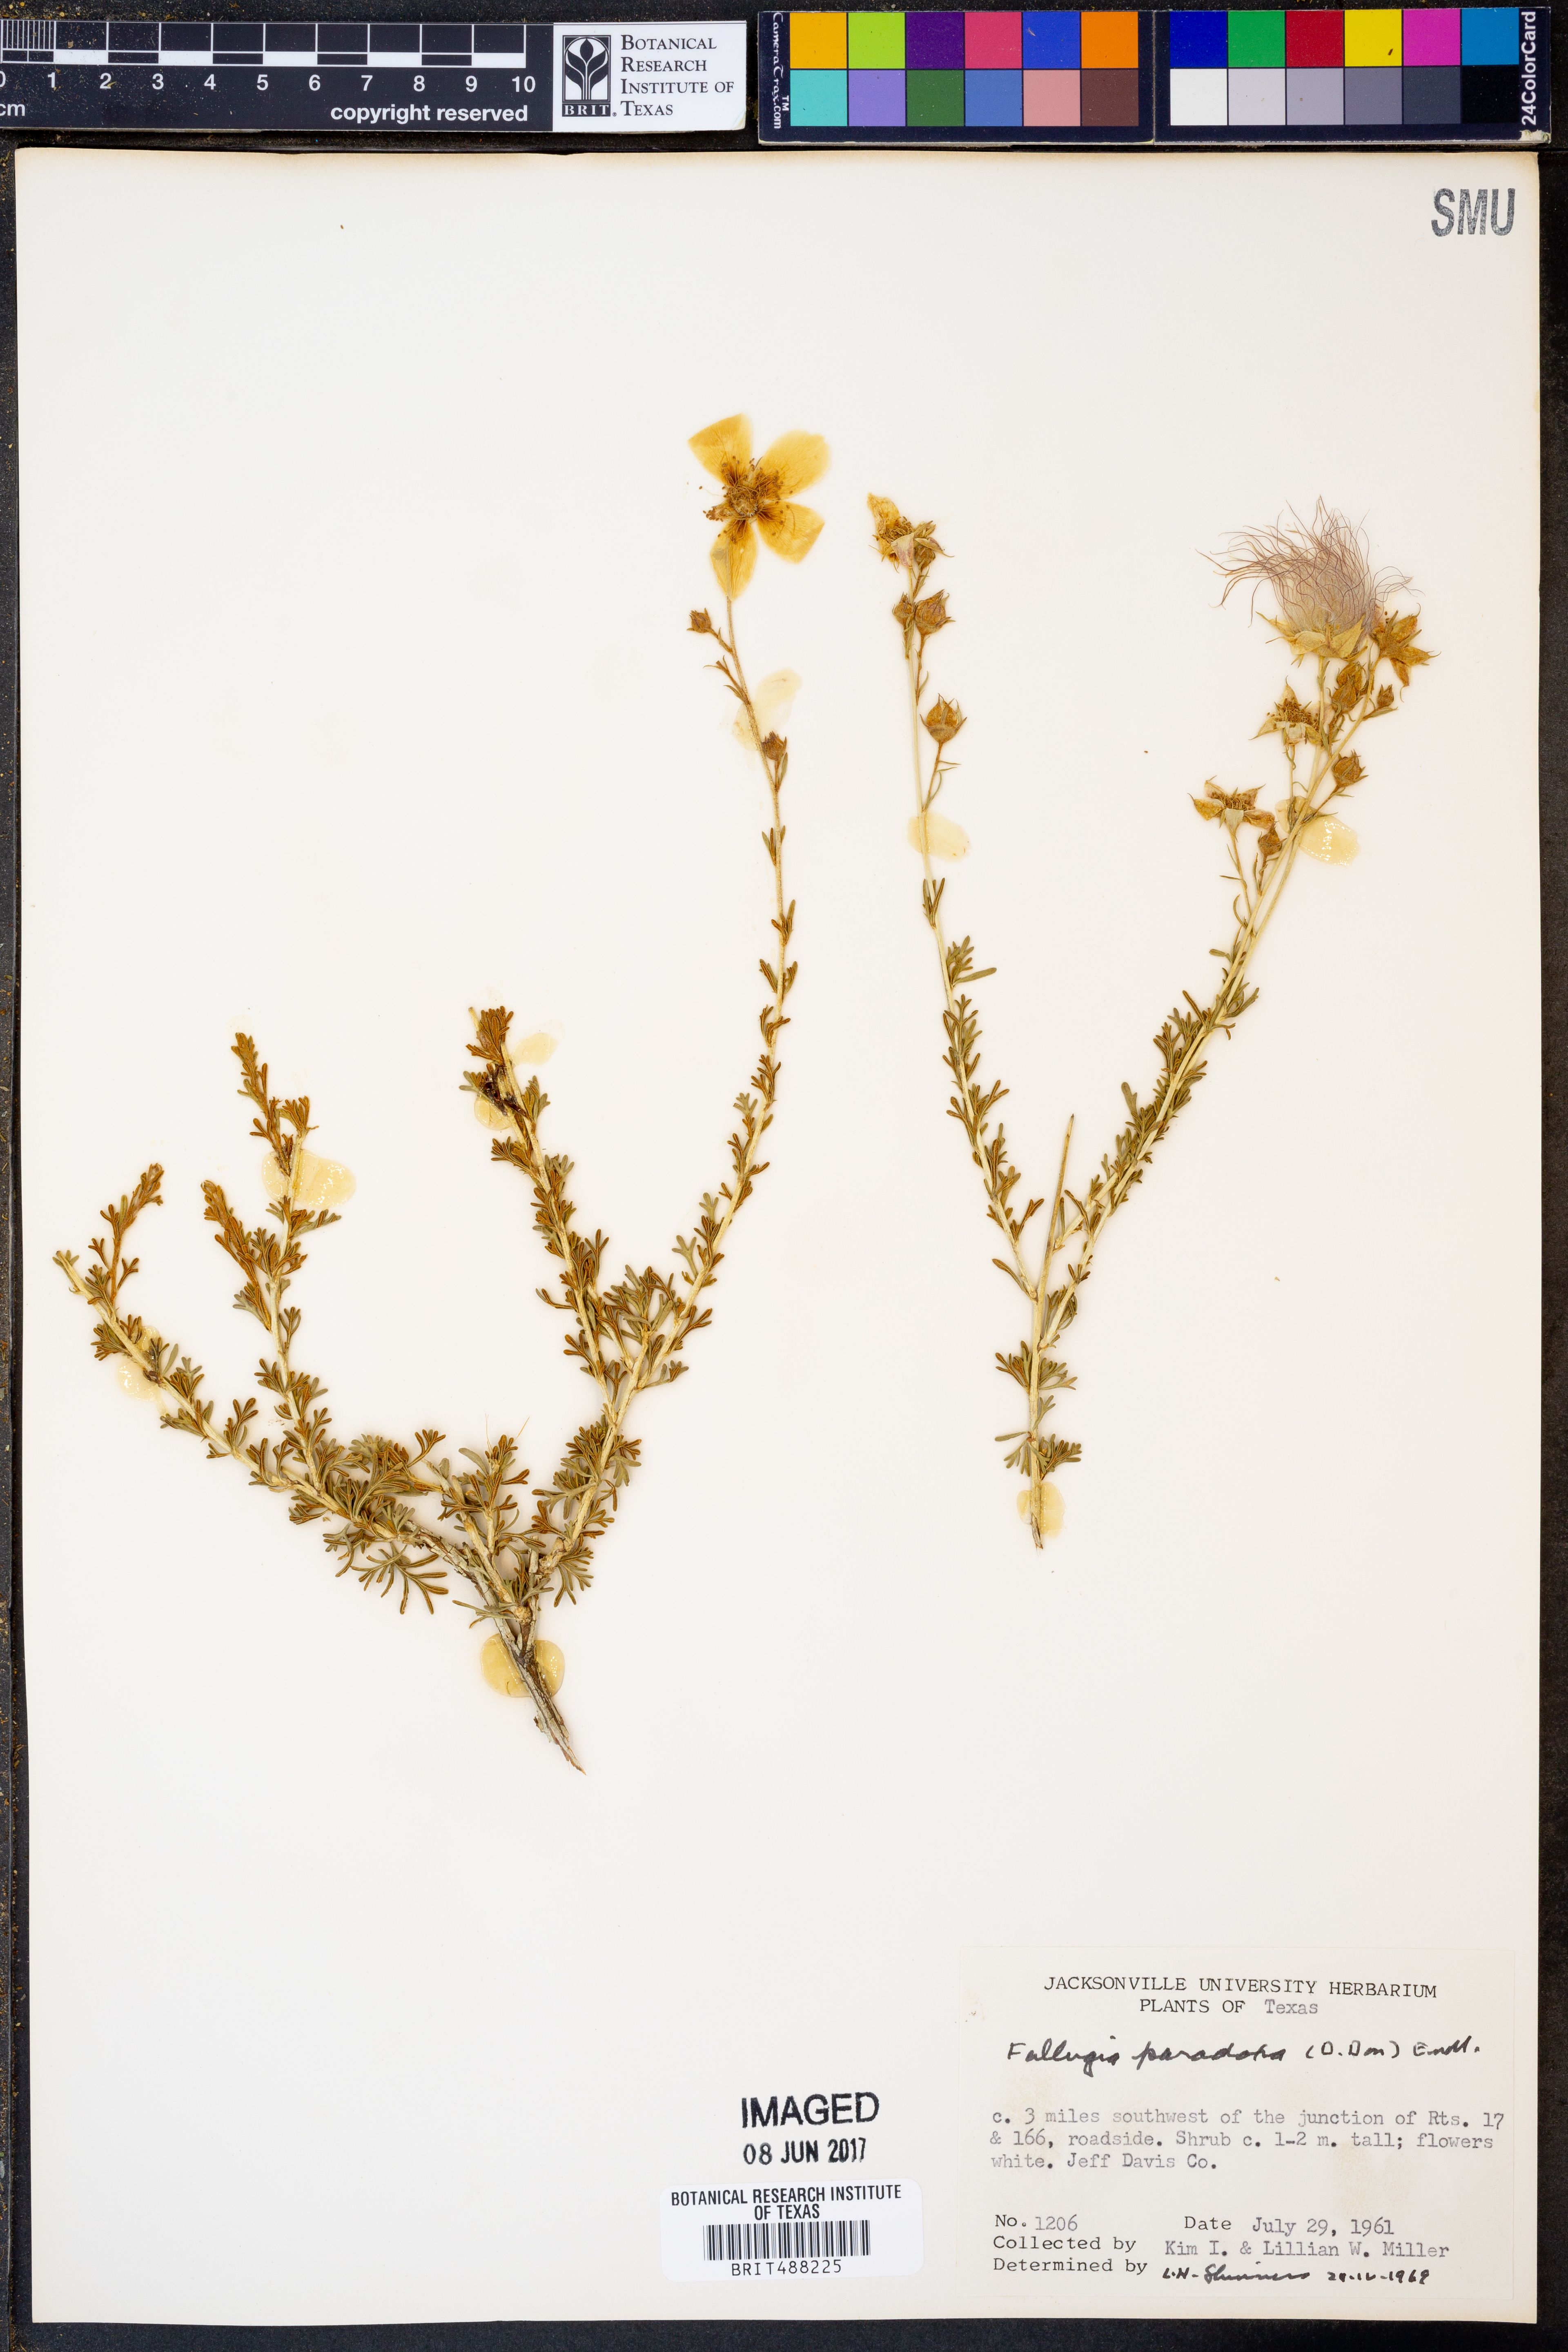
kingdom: Plantae
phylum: Tracheophyta
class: Magnoliopsida
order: Rosales
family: Rosaceae
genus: Fallugia
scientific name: Fallugia paradoxa
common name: Apache-plume
